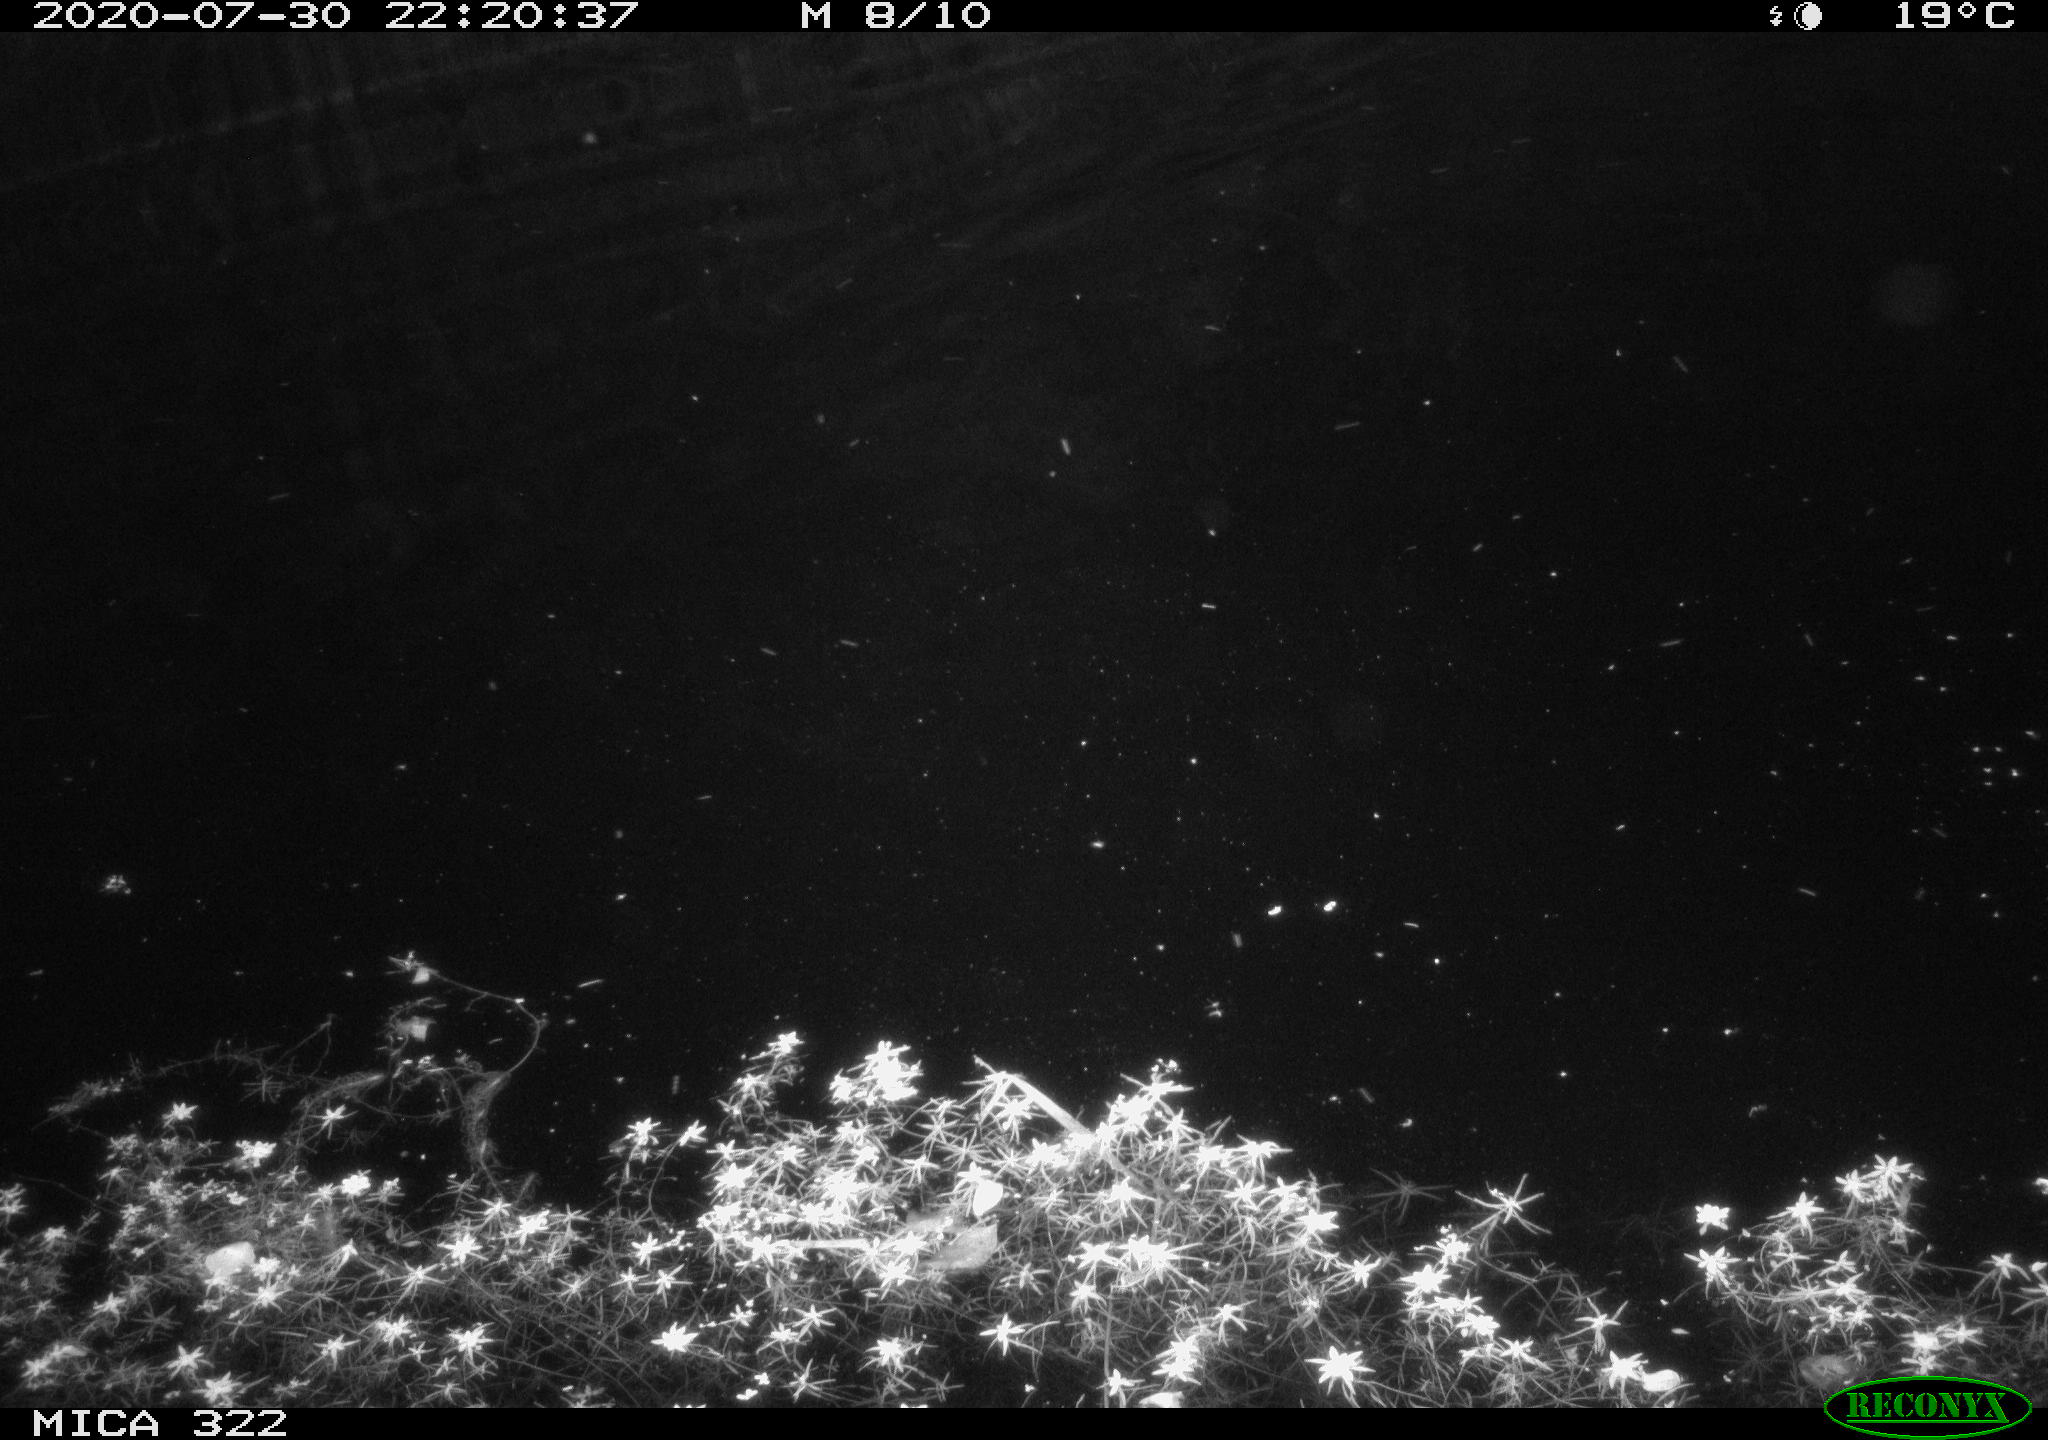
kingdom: Animalia
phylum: Chordata
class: Mammalia
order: Carnivora
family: Mustelidae
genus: Mustela
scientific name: Mustela putorius
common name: European polecat
